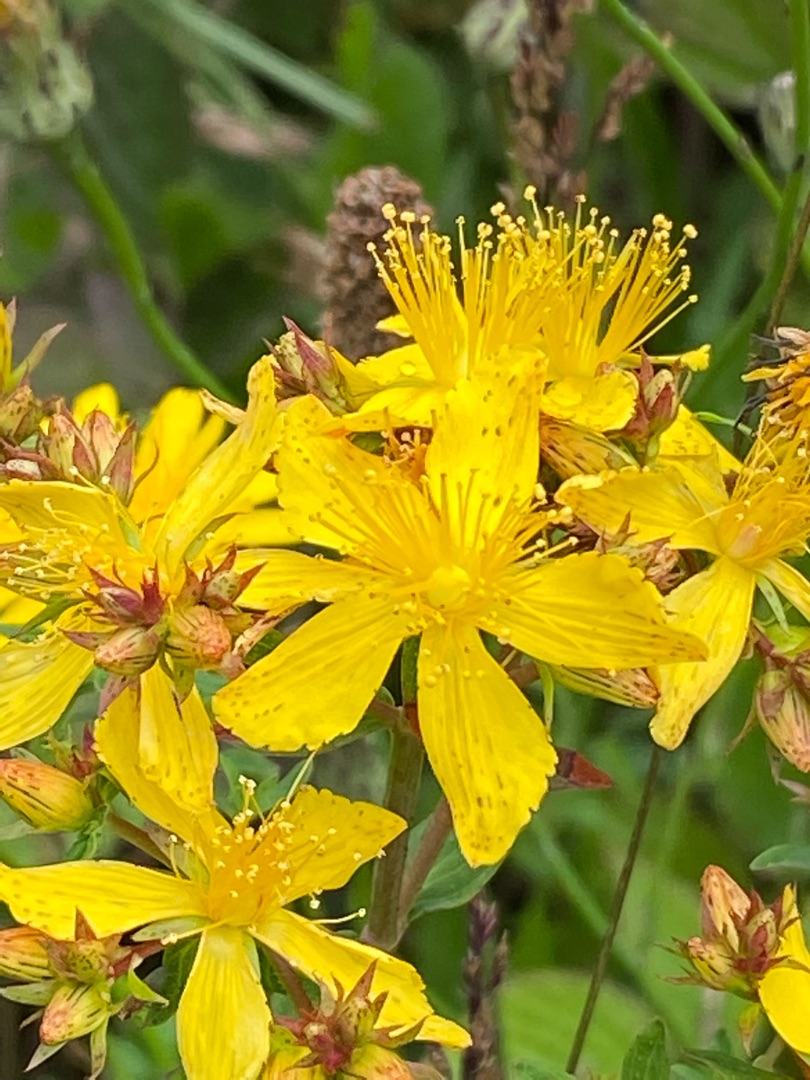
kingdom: Plantae
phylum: Tracheophyta
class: Magnoliopsida
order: Malpighiales
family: Hypericaceae
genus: Hypericum
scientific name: Hypericum perforatum
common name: Prikbladet perikon
